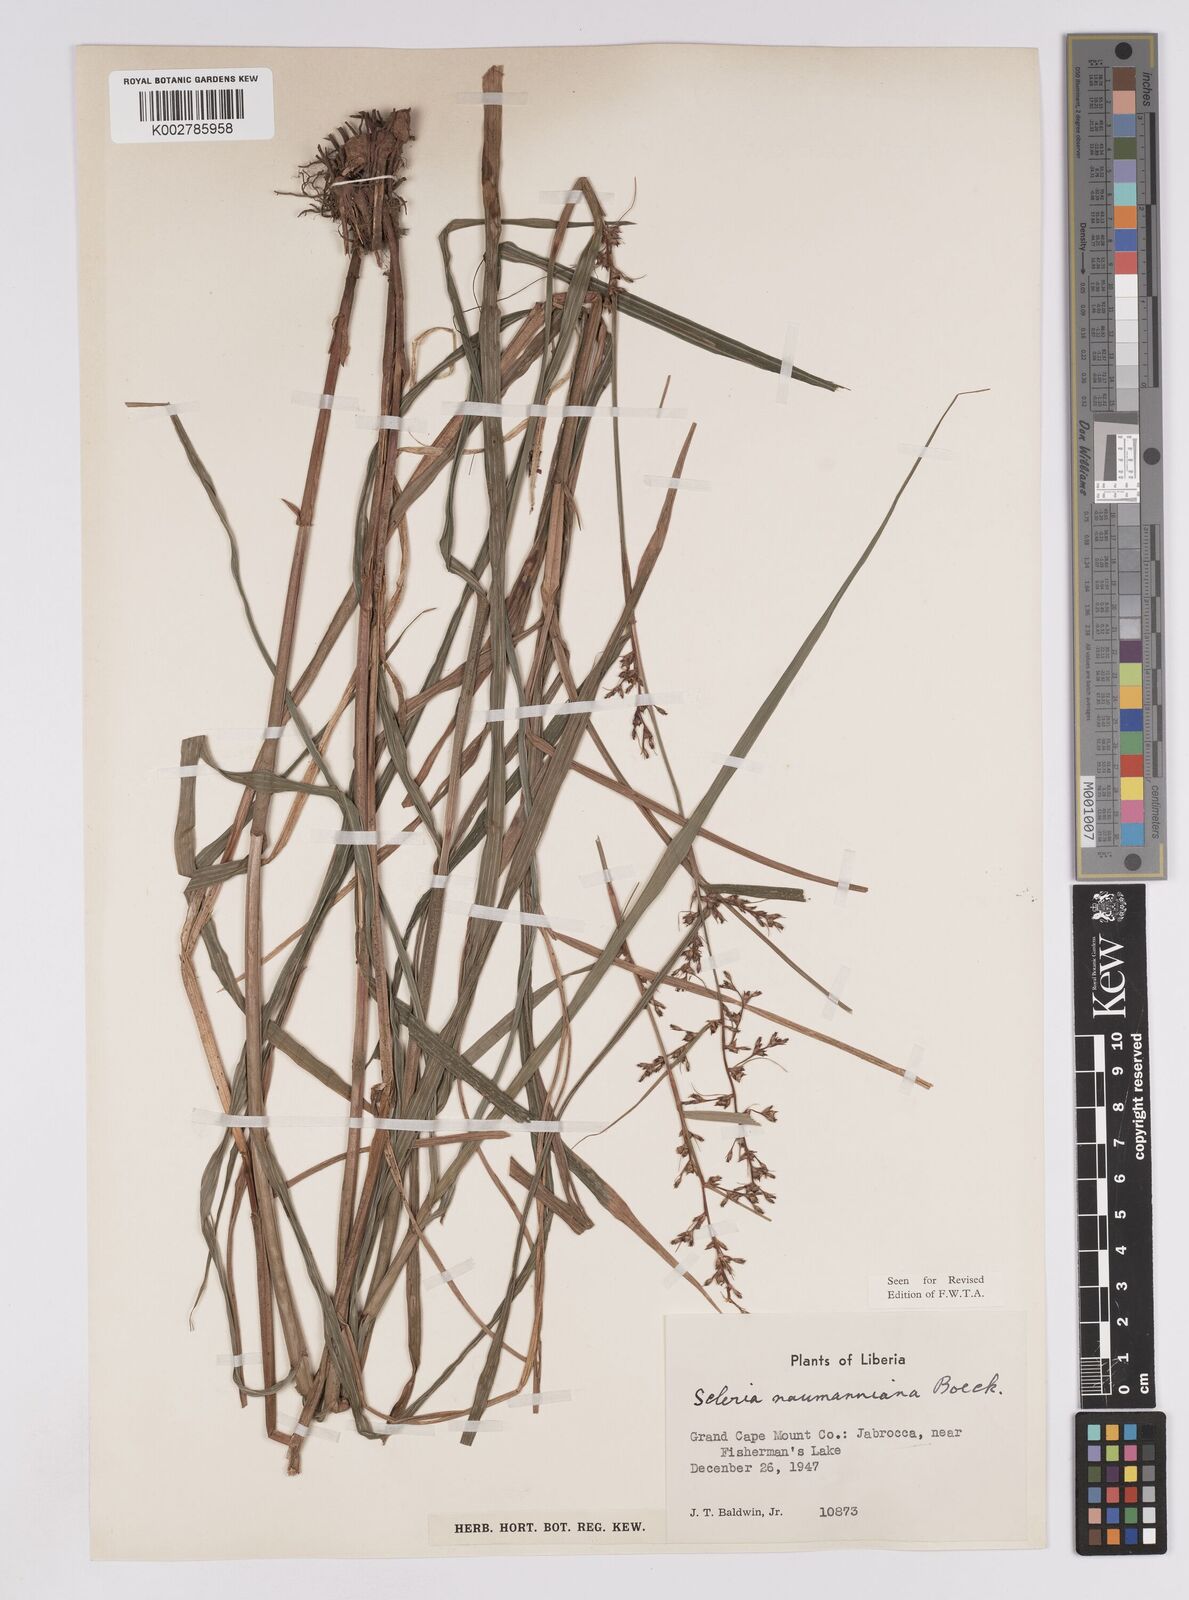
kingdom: Plantae
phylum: Tracheophyta
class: Liliopsida
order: Poales
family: Cyperaceae
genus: Scleria
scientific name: Scleria naumanniana
